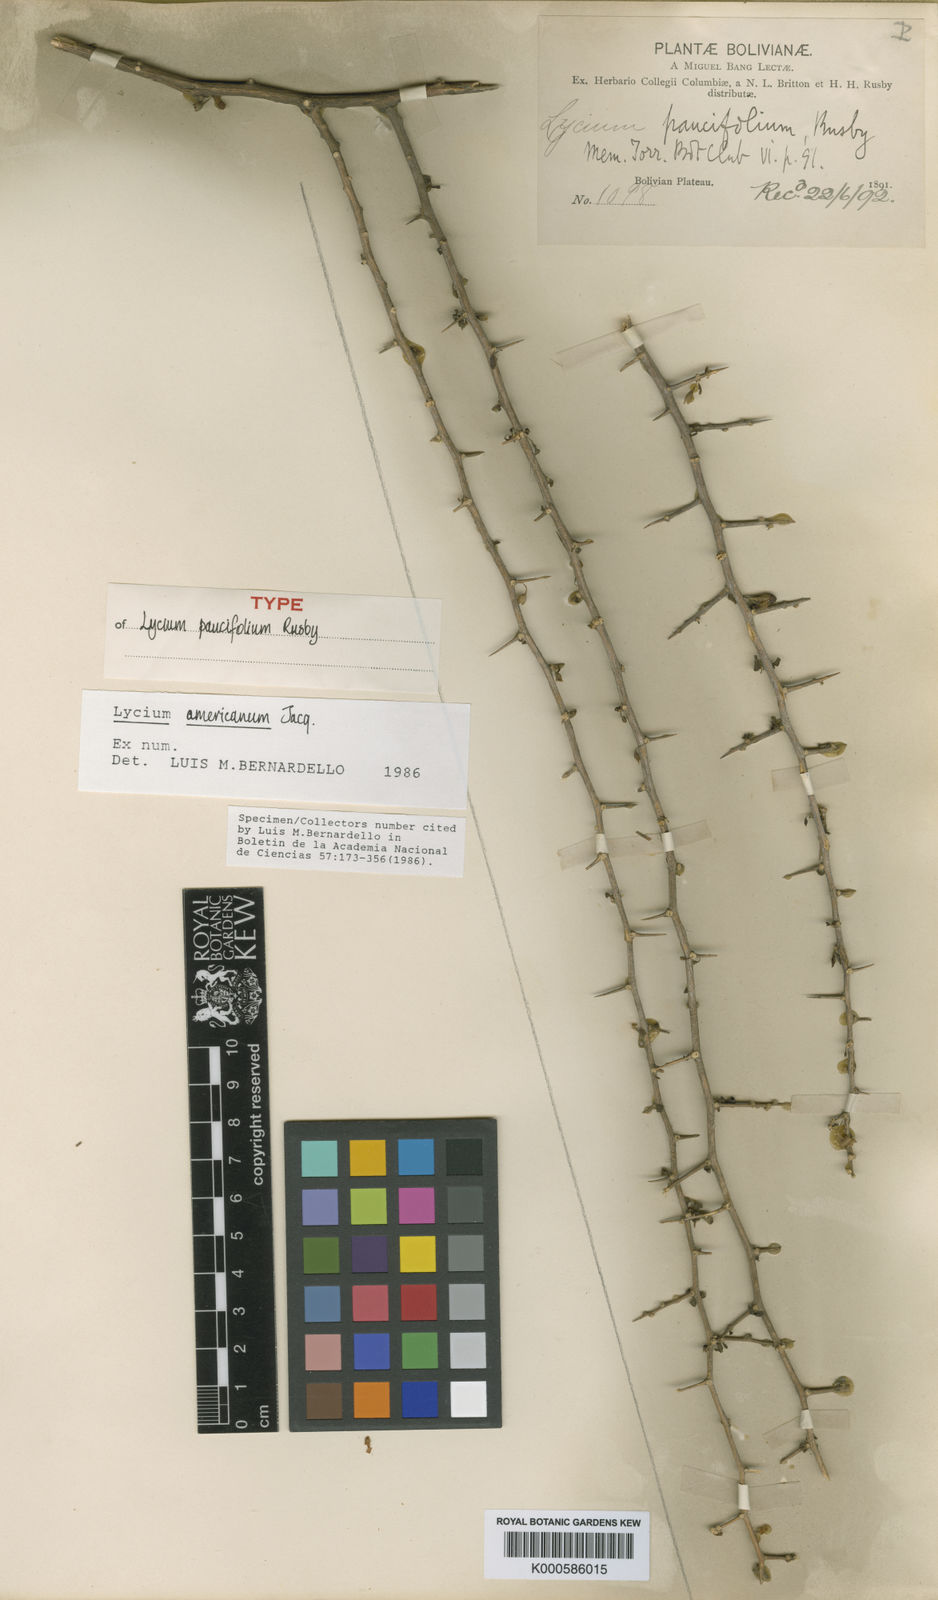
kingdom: Plantae
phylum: Tracheophyta
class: Magnoliopsida
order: Solanales
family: Solanaceae
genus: Lycium
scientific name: Lycium americanum
